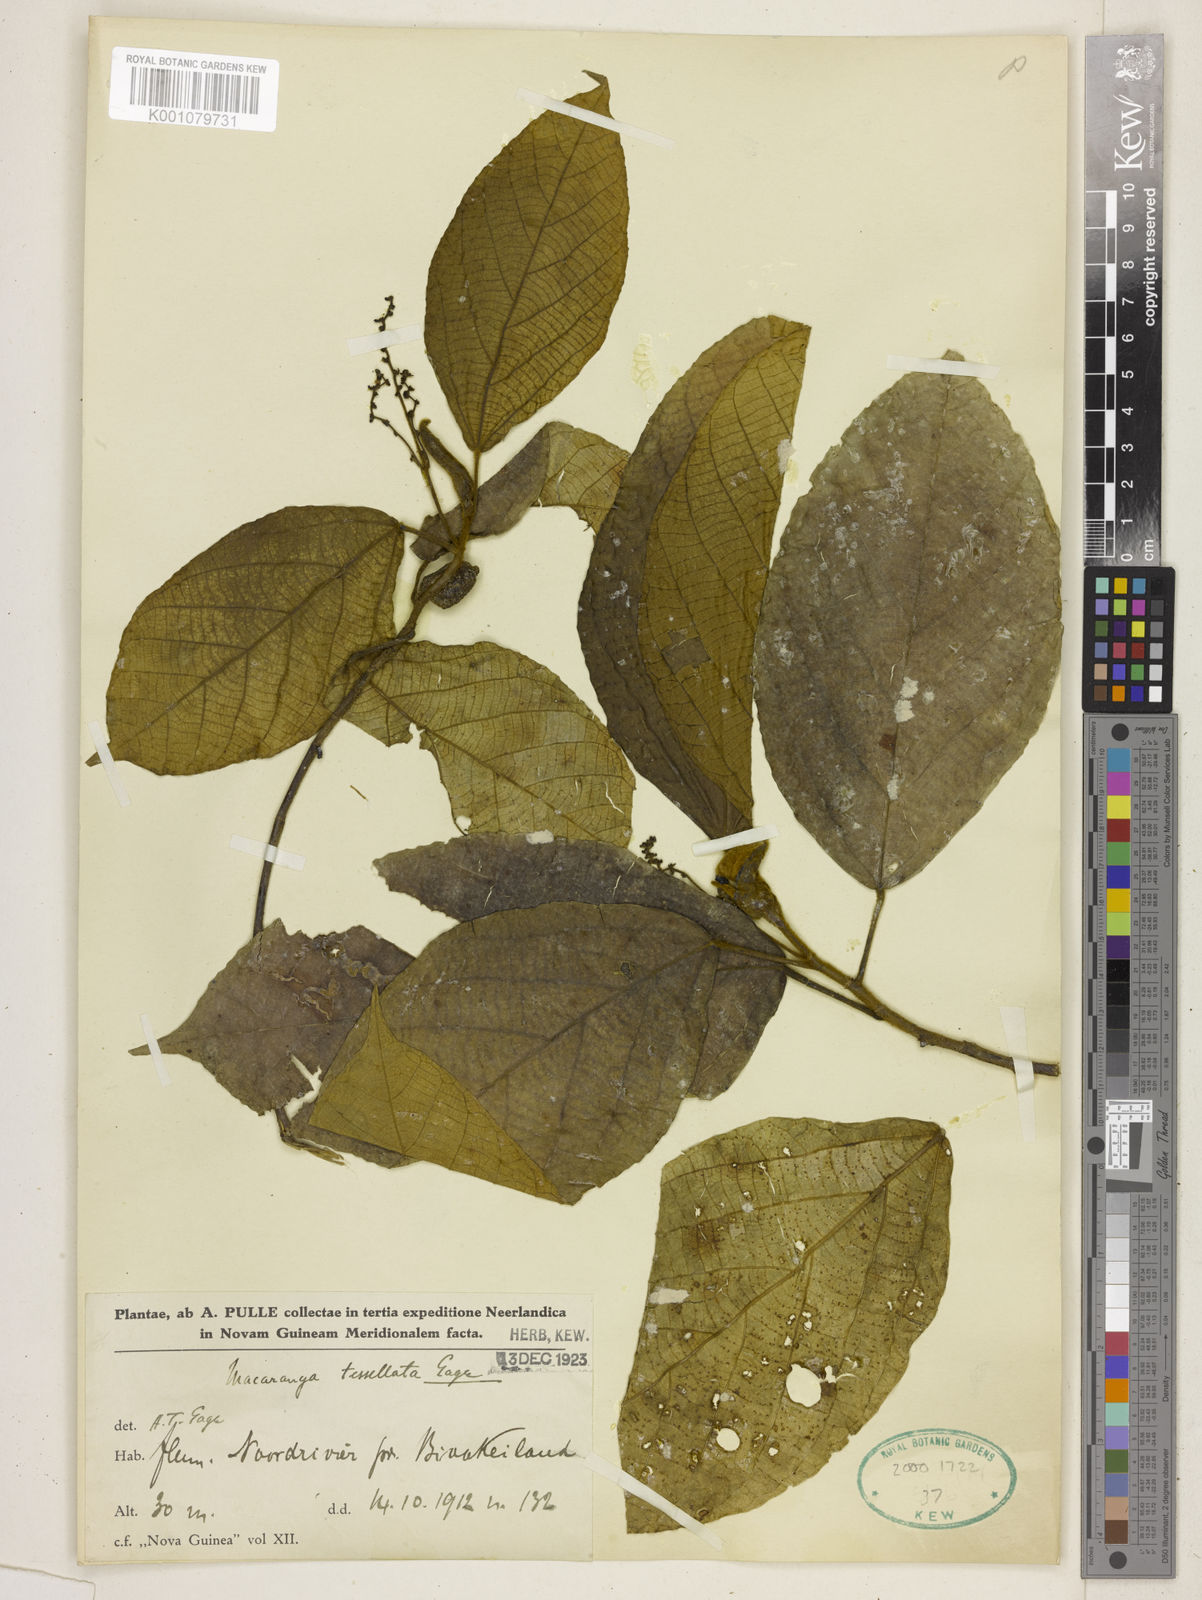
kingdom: Plantae
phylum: Tracheophyta
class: Magnoliopsida
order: Malpighiales
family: Euphorbiaceae
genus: Macaranga
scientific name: Macaranga tessellata
